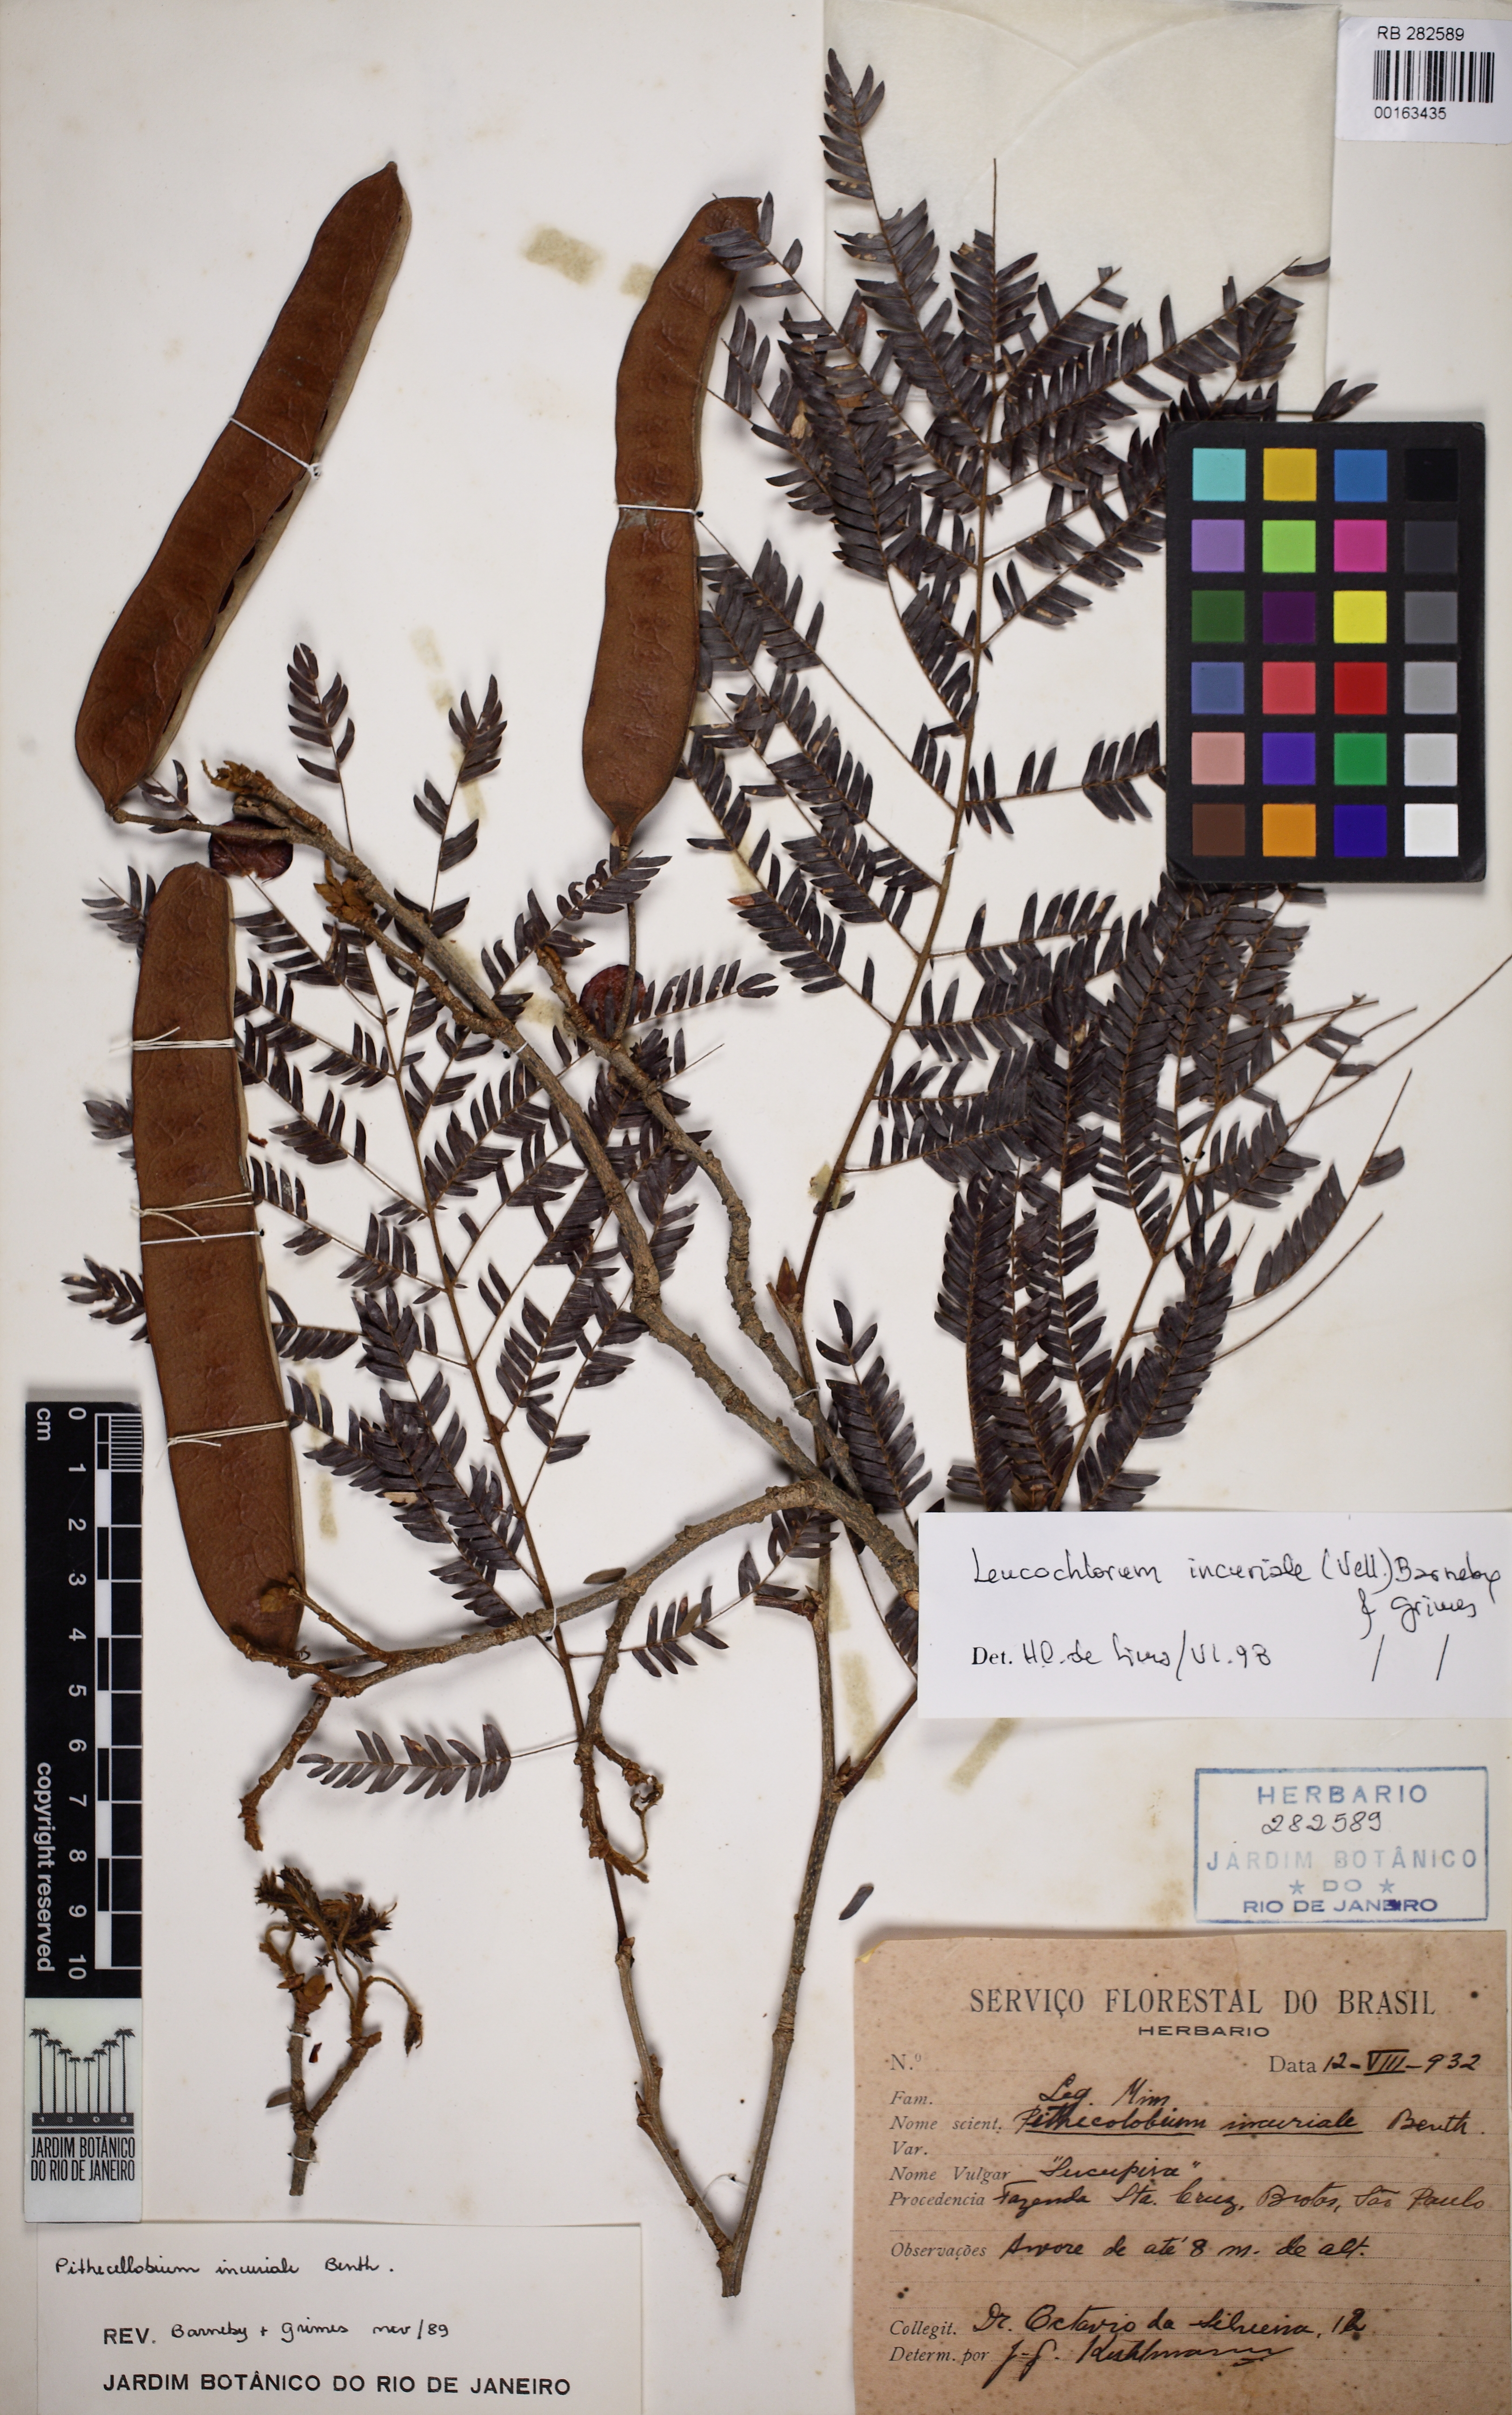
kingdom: Plantae
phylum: Tracheophyta
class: Magnoliopsida
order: Fabales
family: Fabaceae
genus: Leucochloron
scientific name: Leucochloron incuriale
